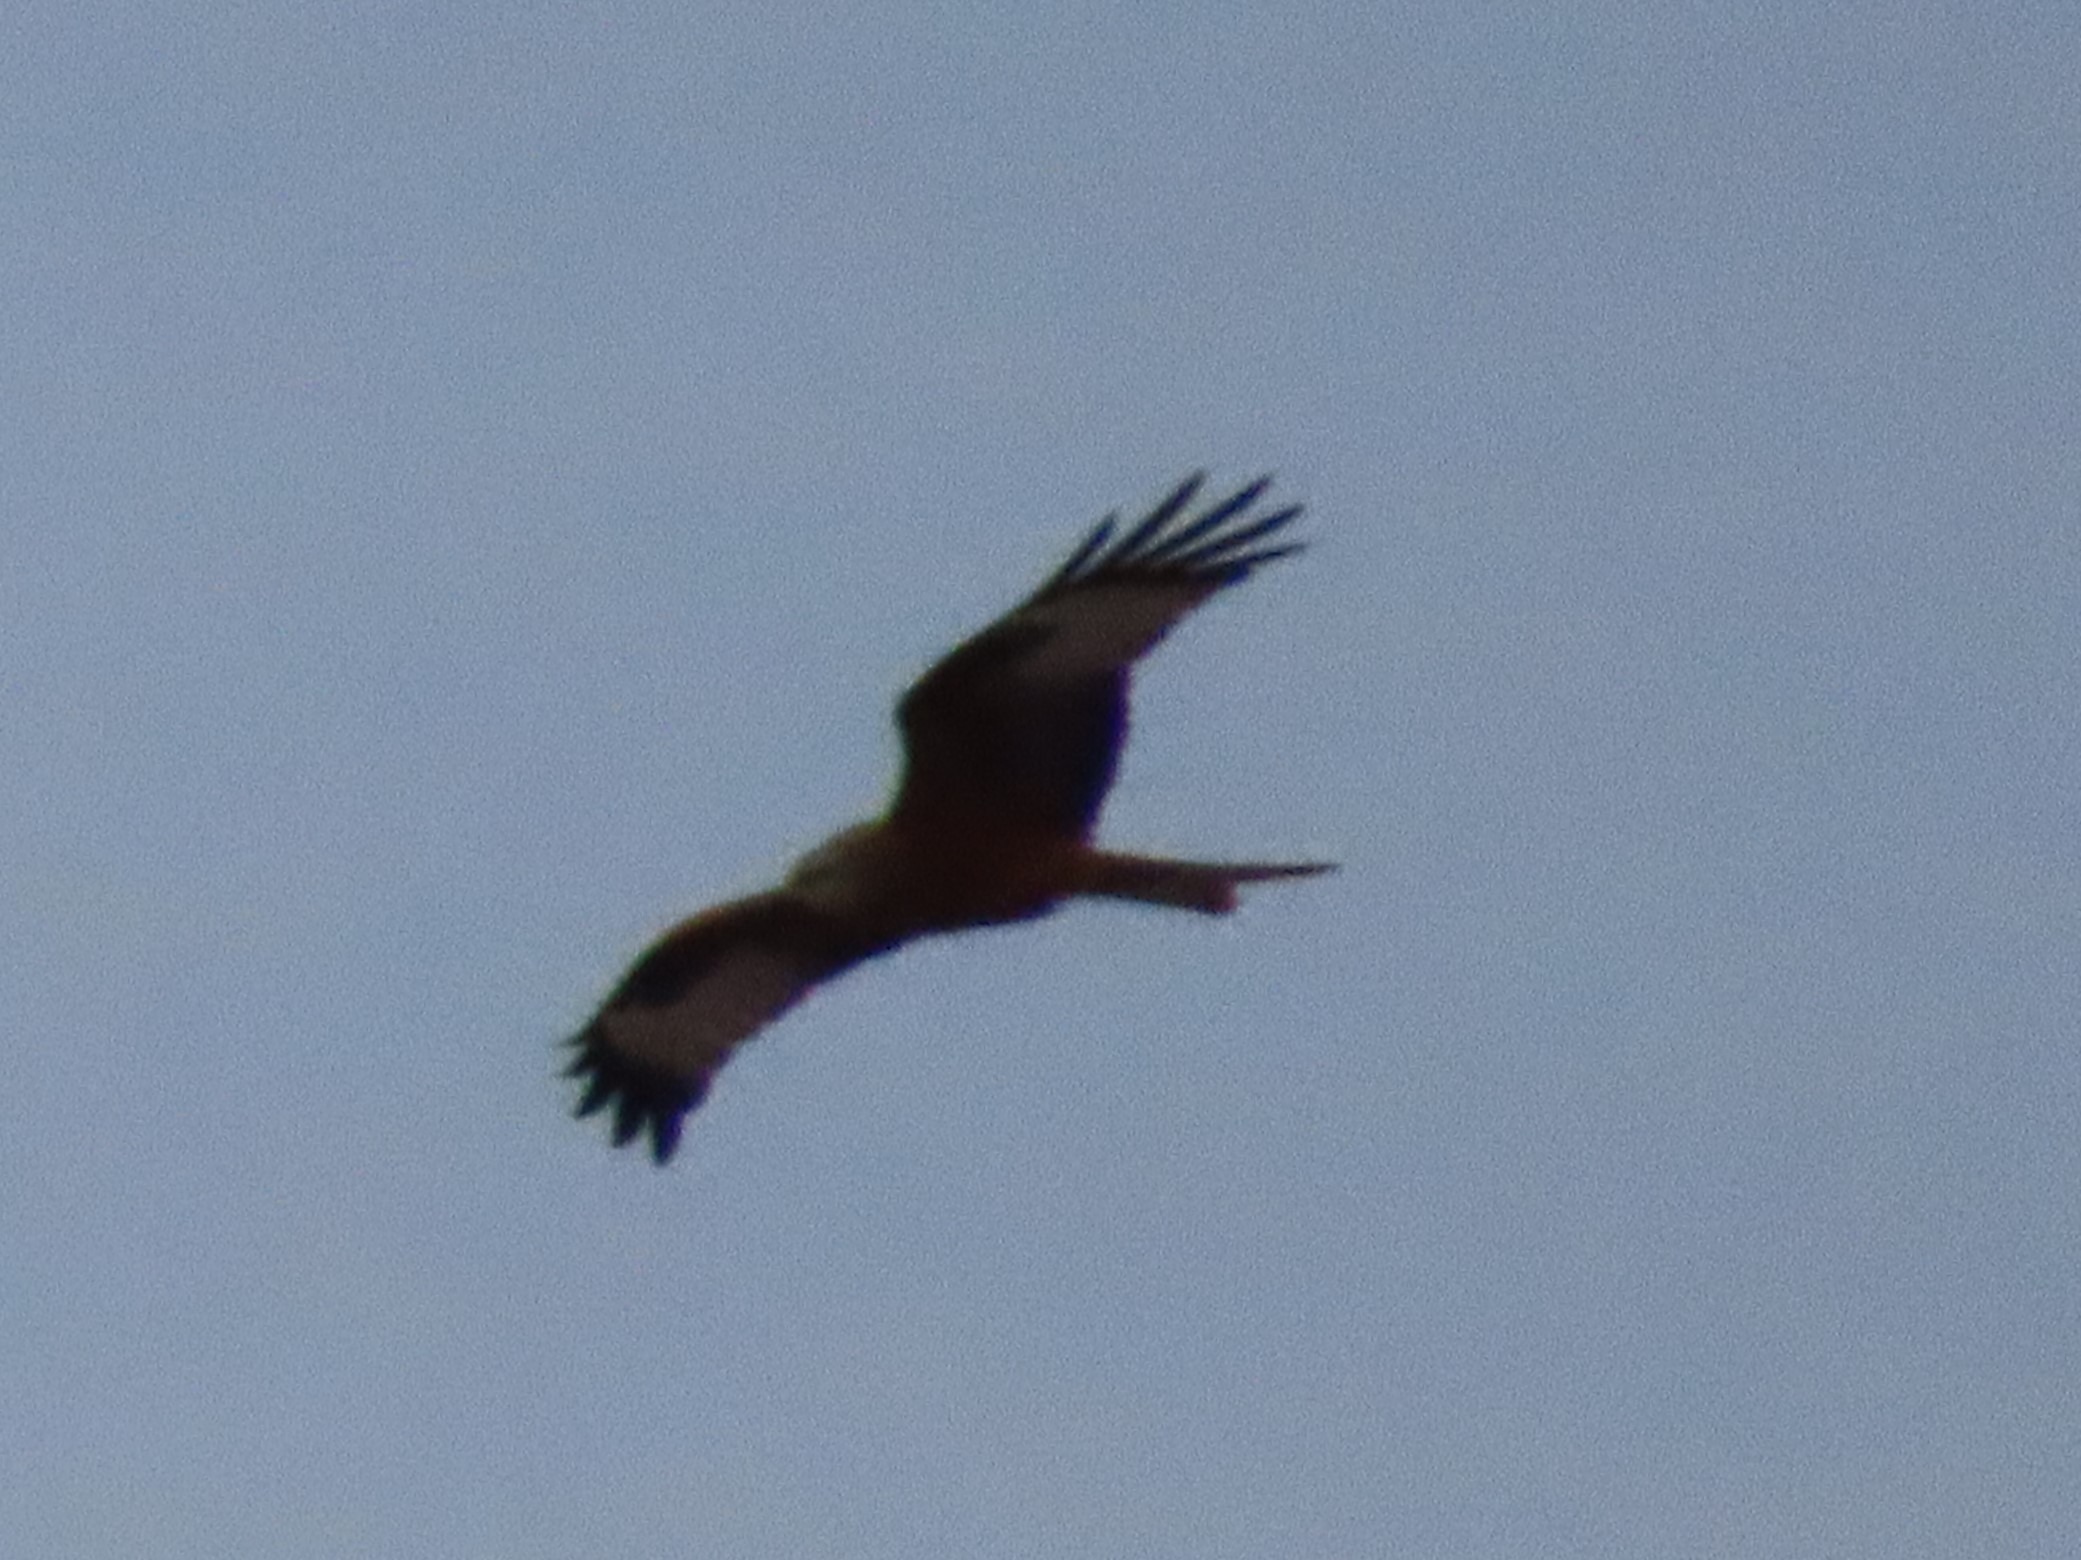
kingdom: Animalia
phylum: Chordata
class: Aves
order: Accipitriformes
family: Accipitridae
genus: Milvus
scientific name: Milvus milvus
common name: Rød glente
